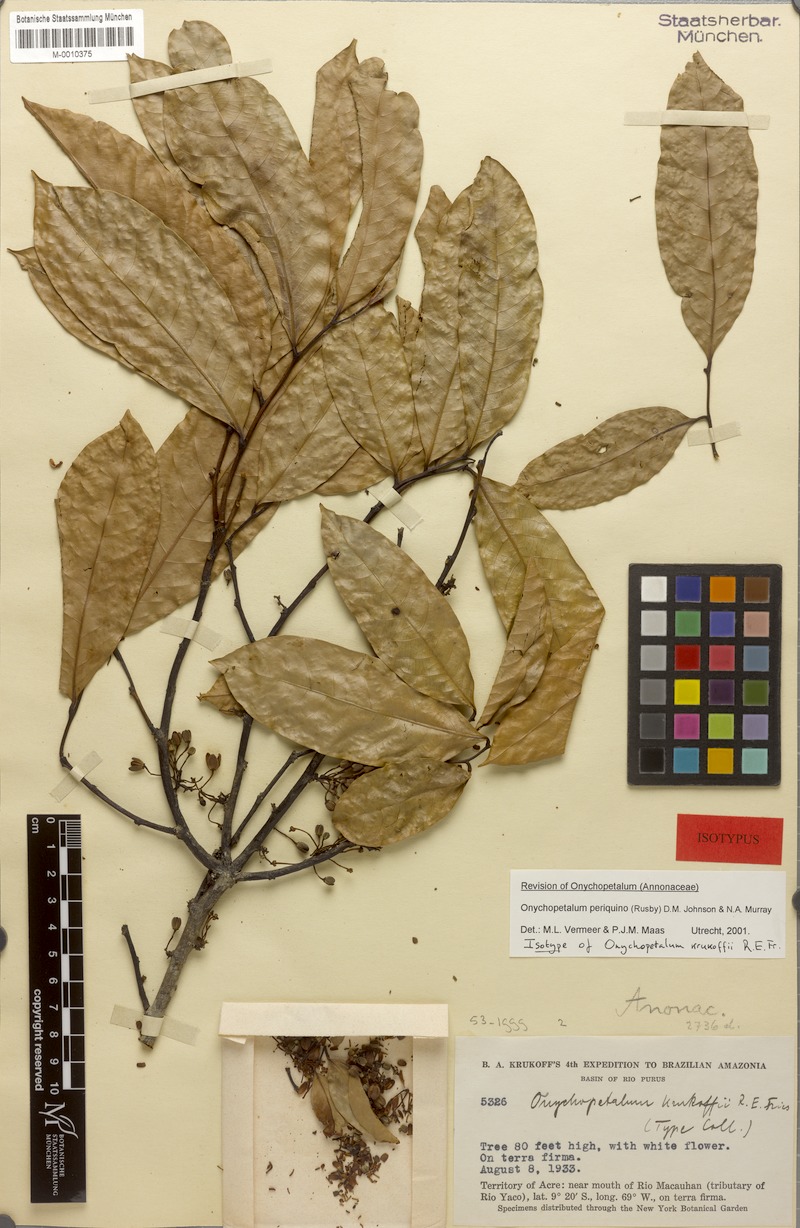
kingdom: Plantae
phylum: Tracheophyta
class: Magnoliopsida
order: Magnoliales
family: Annonaceae
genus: Onychopetalum
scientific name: Onychopetalum periquino
